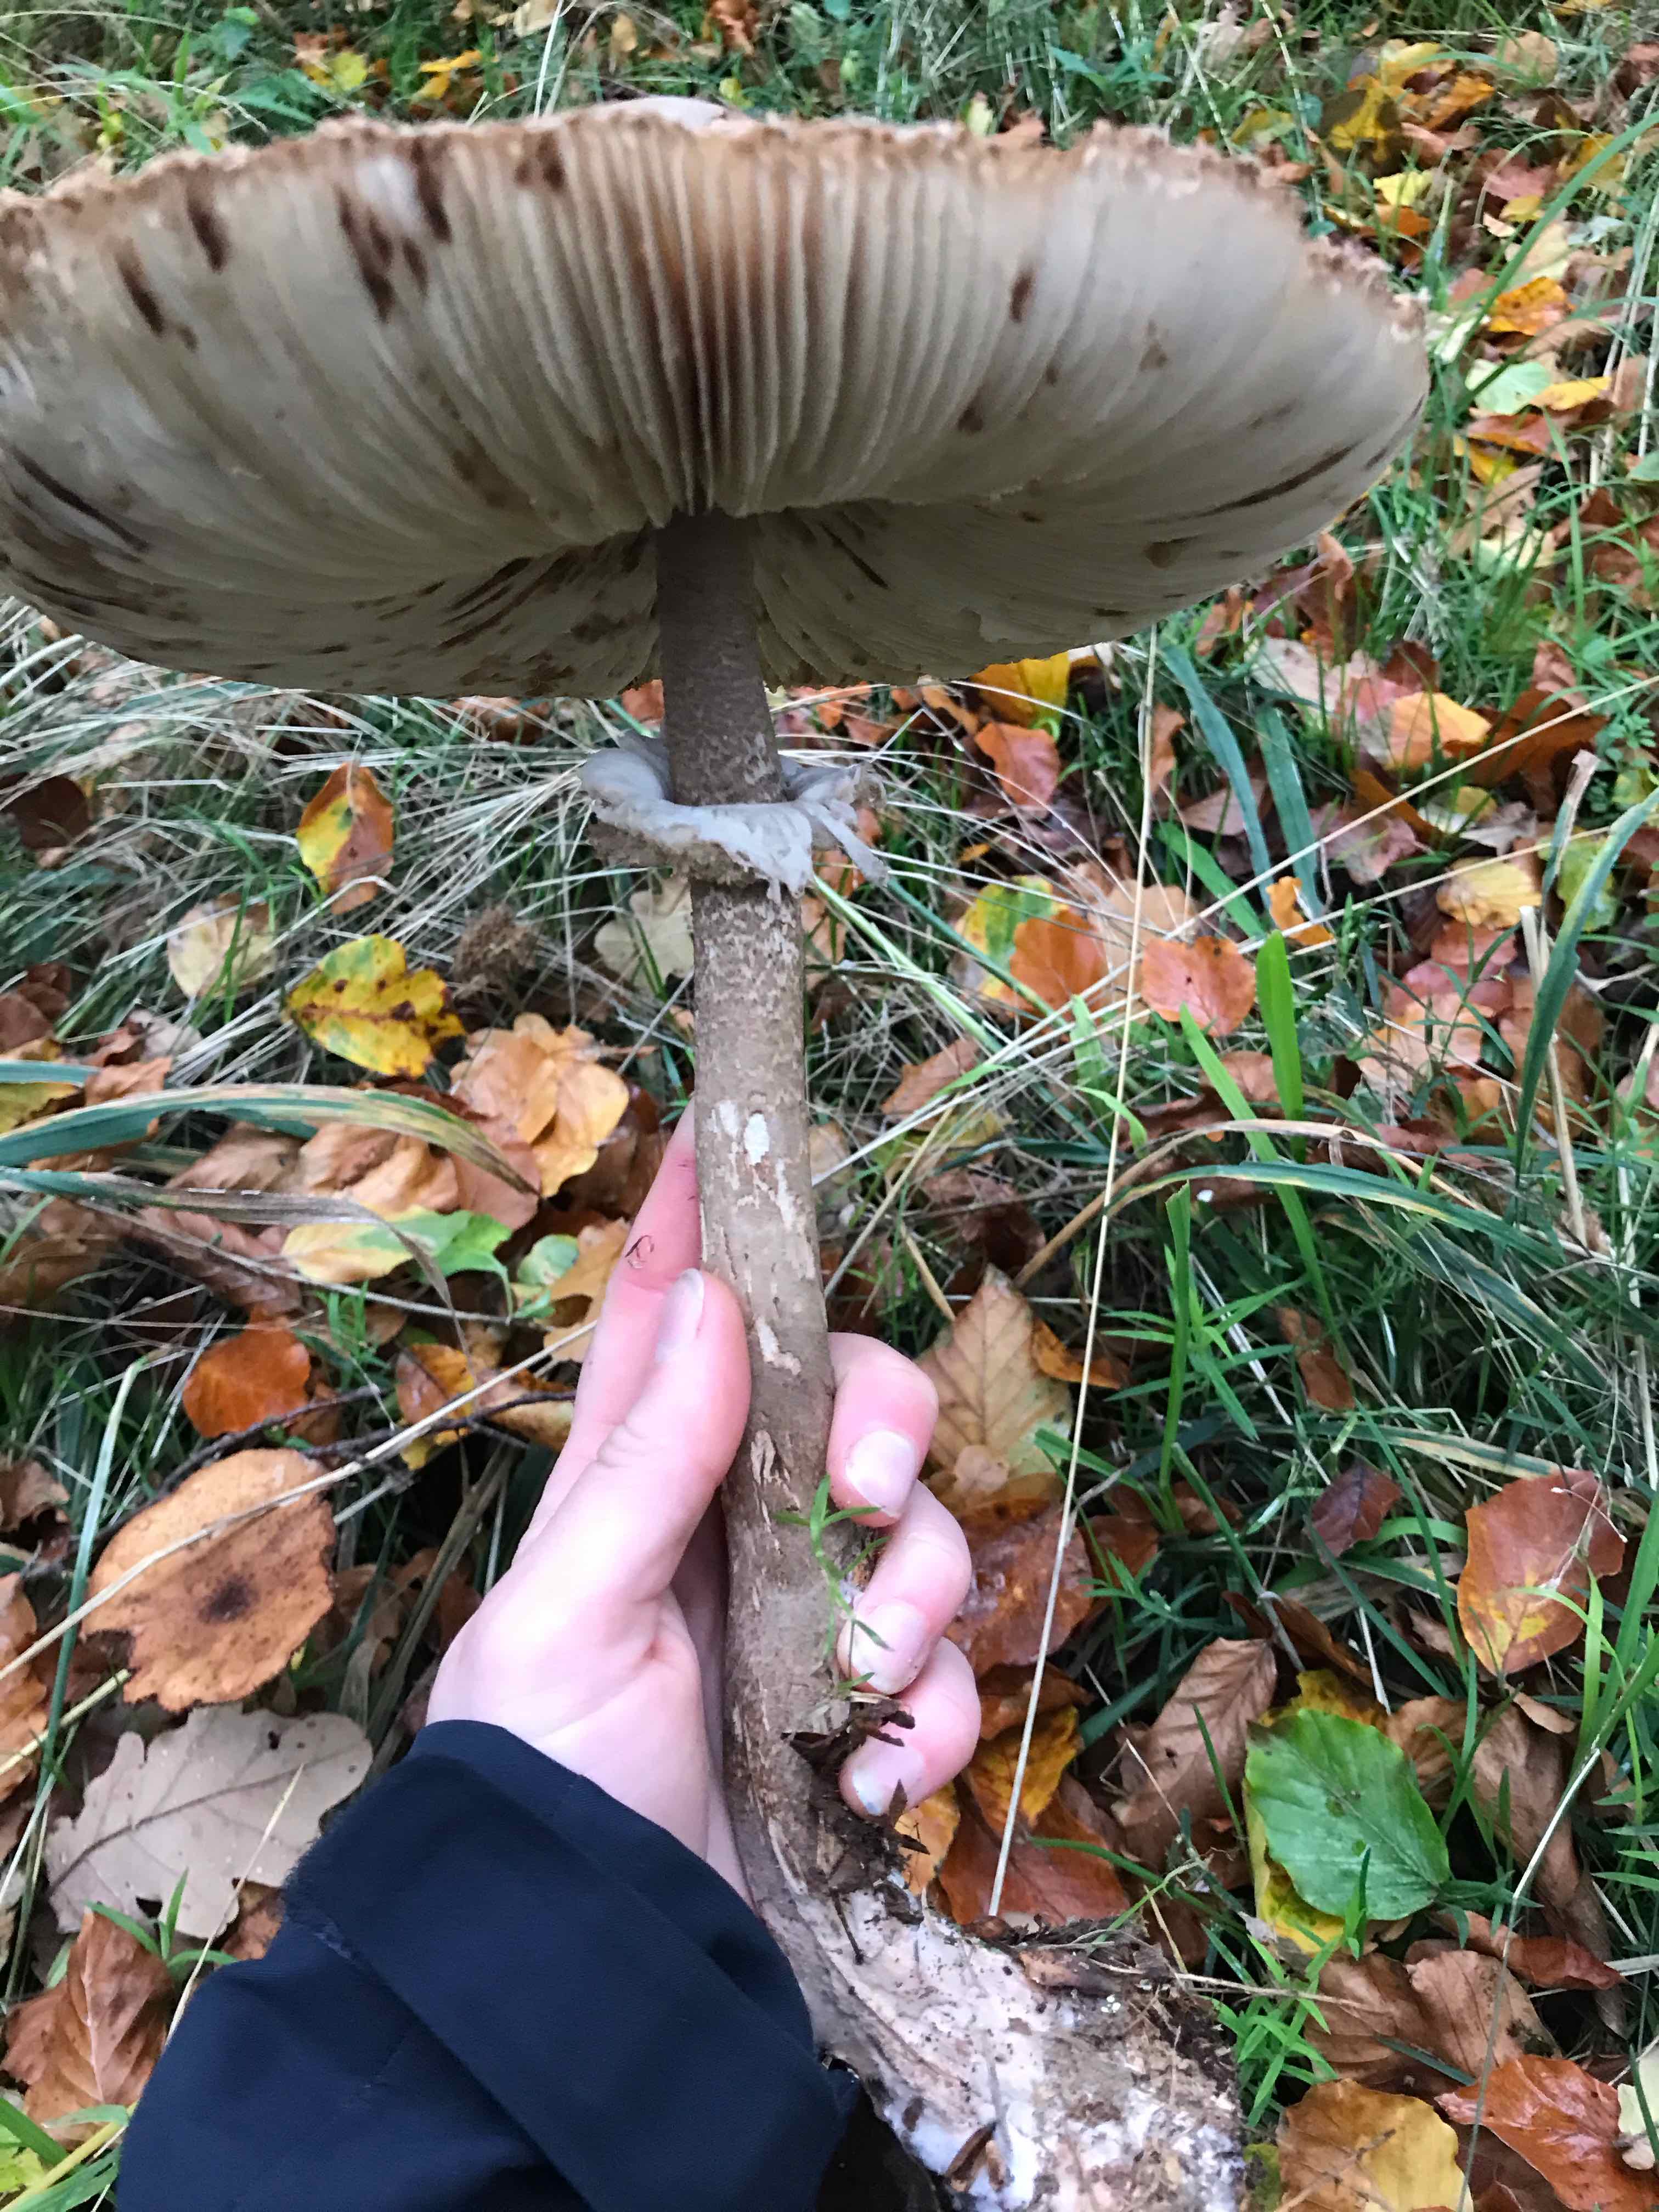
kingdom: Fungi
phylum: Basidiomycota
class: Agaricomycetes
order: Agaricales
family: Agaricaceae
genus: Macrolepiota
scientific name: Macrolepiota procera
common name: stor kæmpeparasolhat
